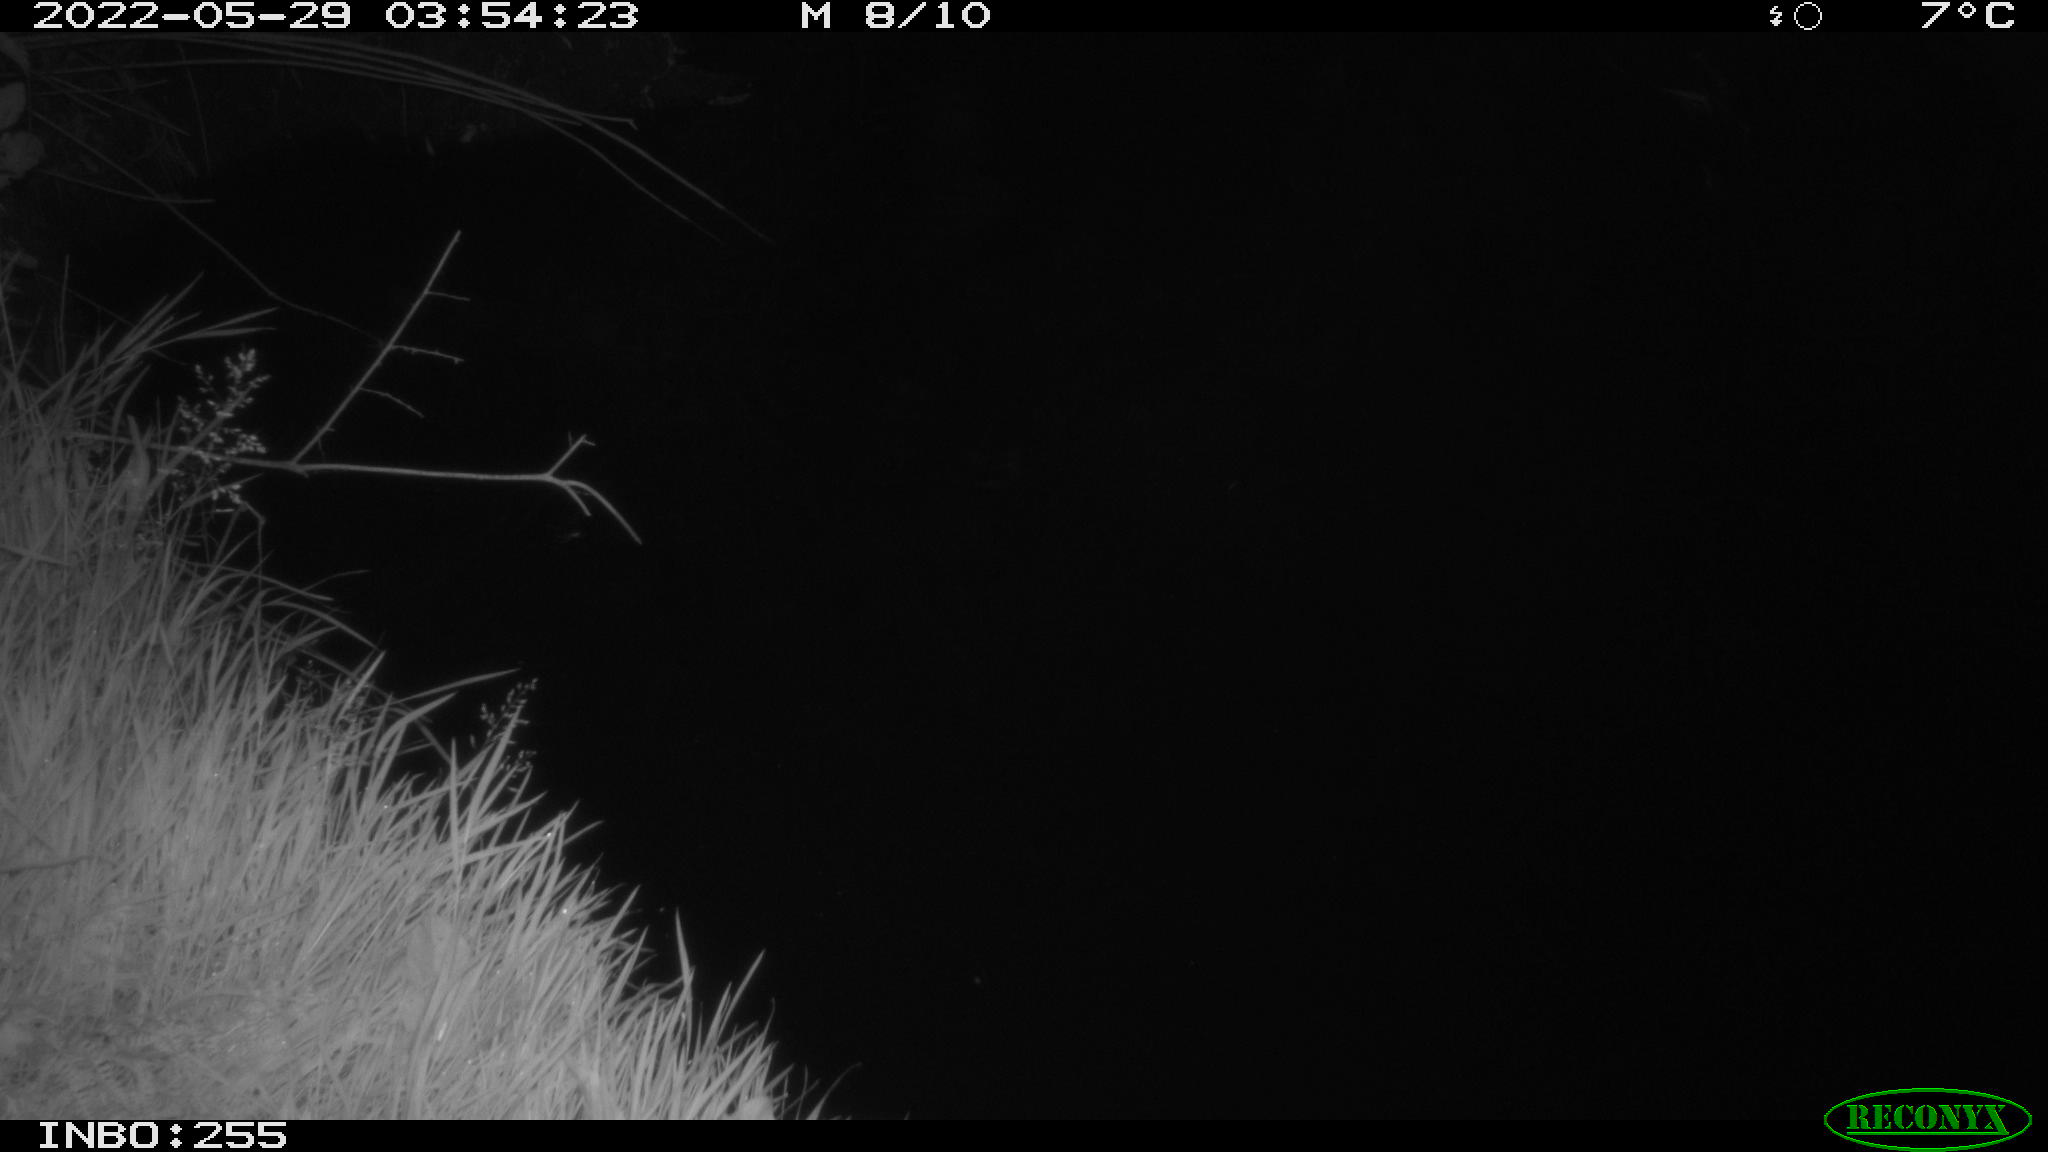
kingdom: Animalia
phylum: Chordata
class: Aves
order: Anseriformes
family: Anatidae
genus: Anas
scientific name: Anas platyrhynchos
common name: Mallard
